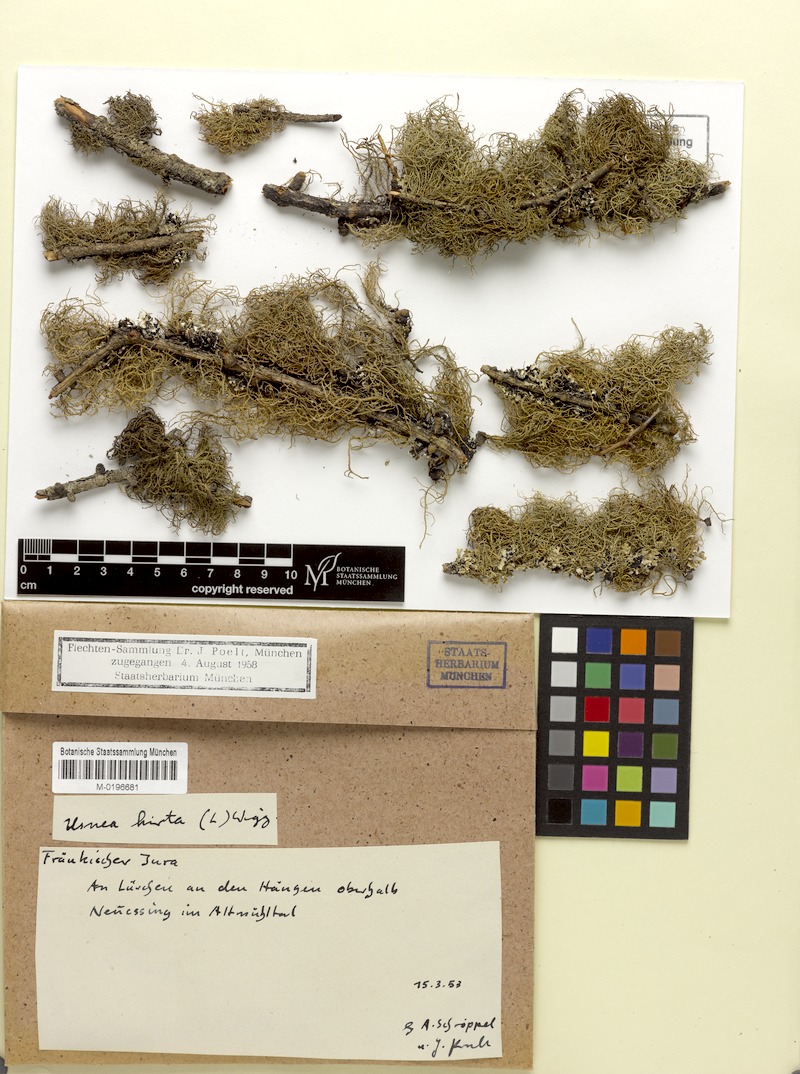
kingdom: Fungi
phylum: Ascomycota
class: Lecanoromycetes
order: Lecanorales
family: Parmeliaceae
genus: Usnea
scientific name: Usnea hirta
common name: Bristly beard lichen
